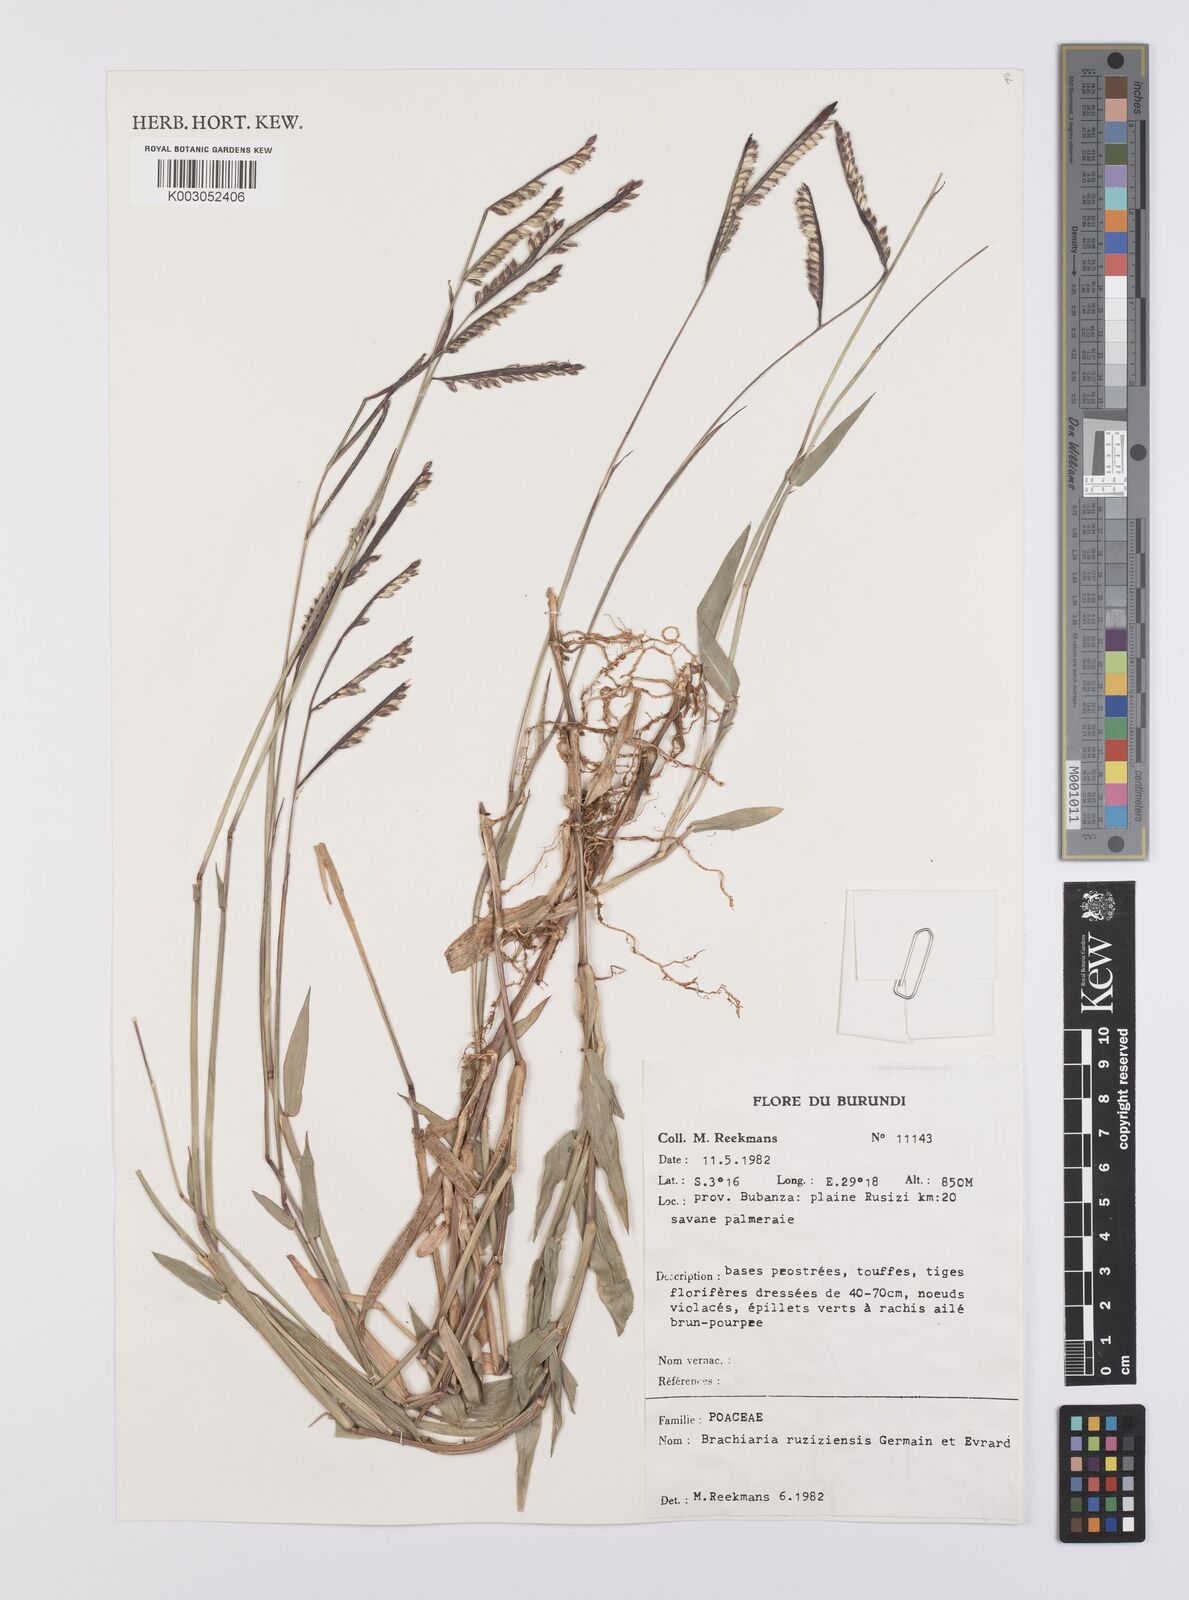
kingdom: Plantae
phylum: Tracheophyta
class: Liliopsida
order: Poales
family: Poaceae
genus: Urochloa
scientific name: Urochloa eminii
